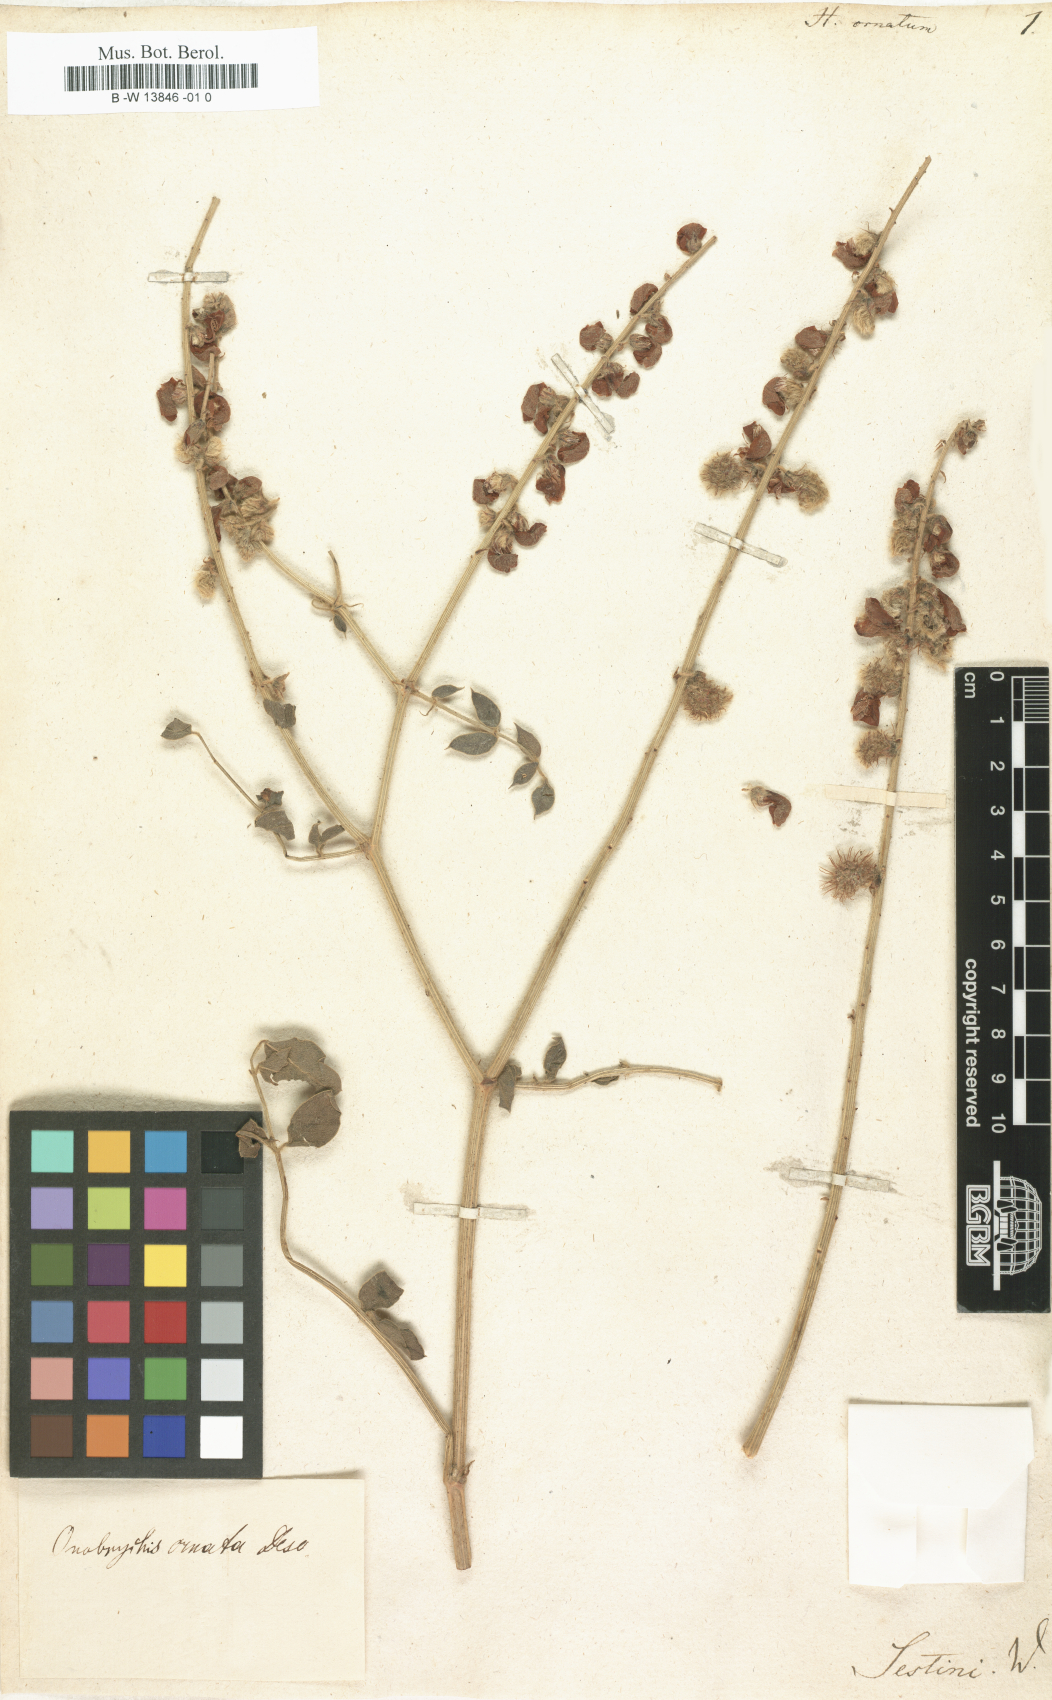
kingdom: Plantae
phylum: Tracheophyta
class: Magnoliopsida
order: Fabales
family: Fabaceae
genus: Onobrychis
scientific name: Onobrychis ornata
